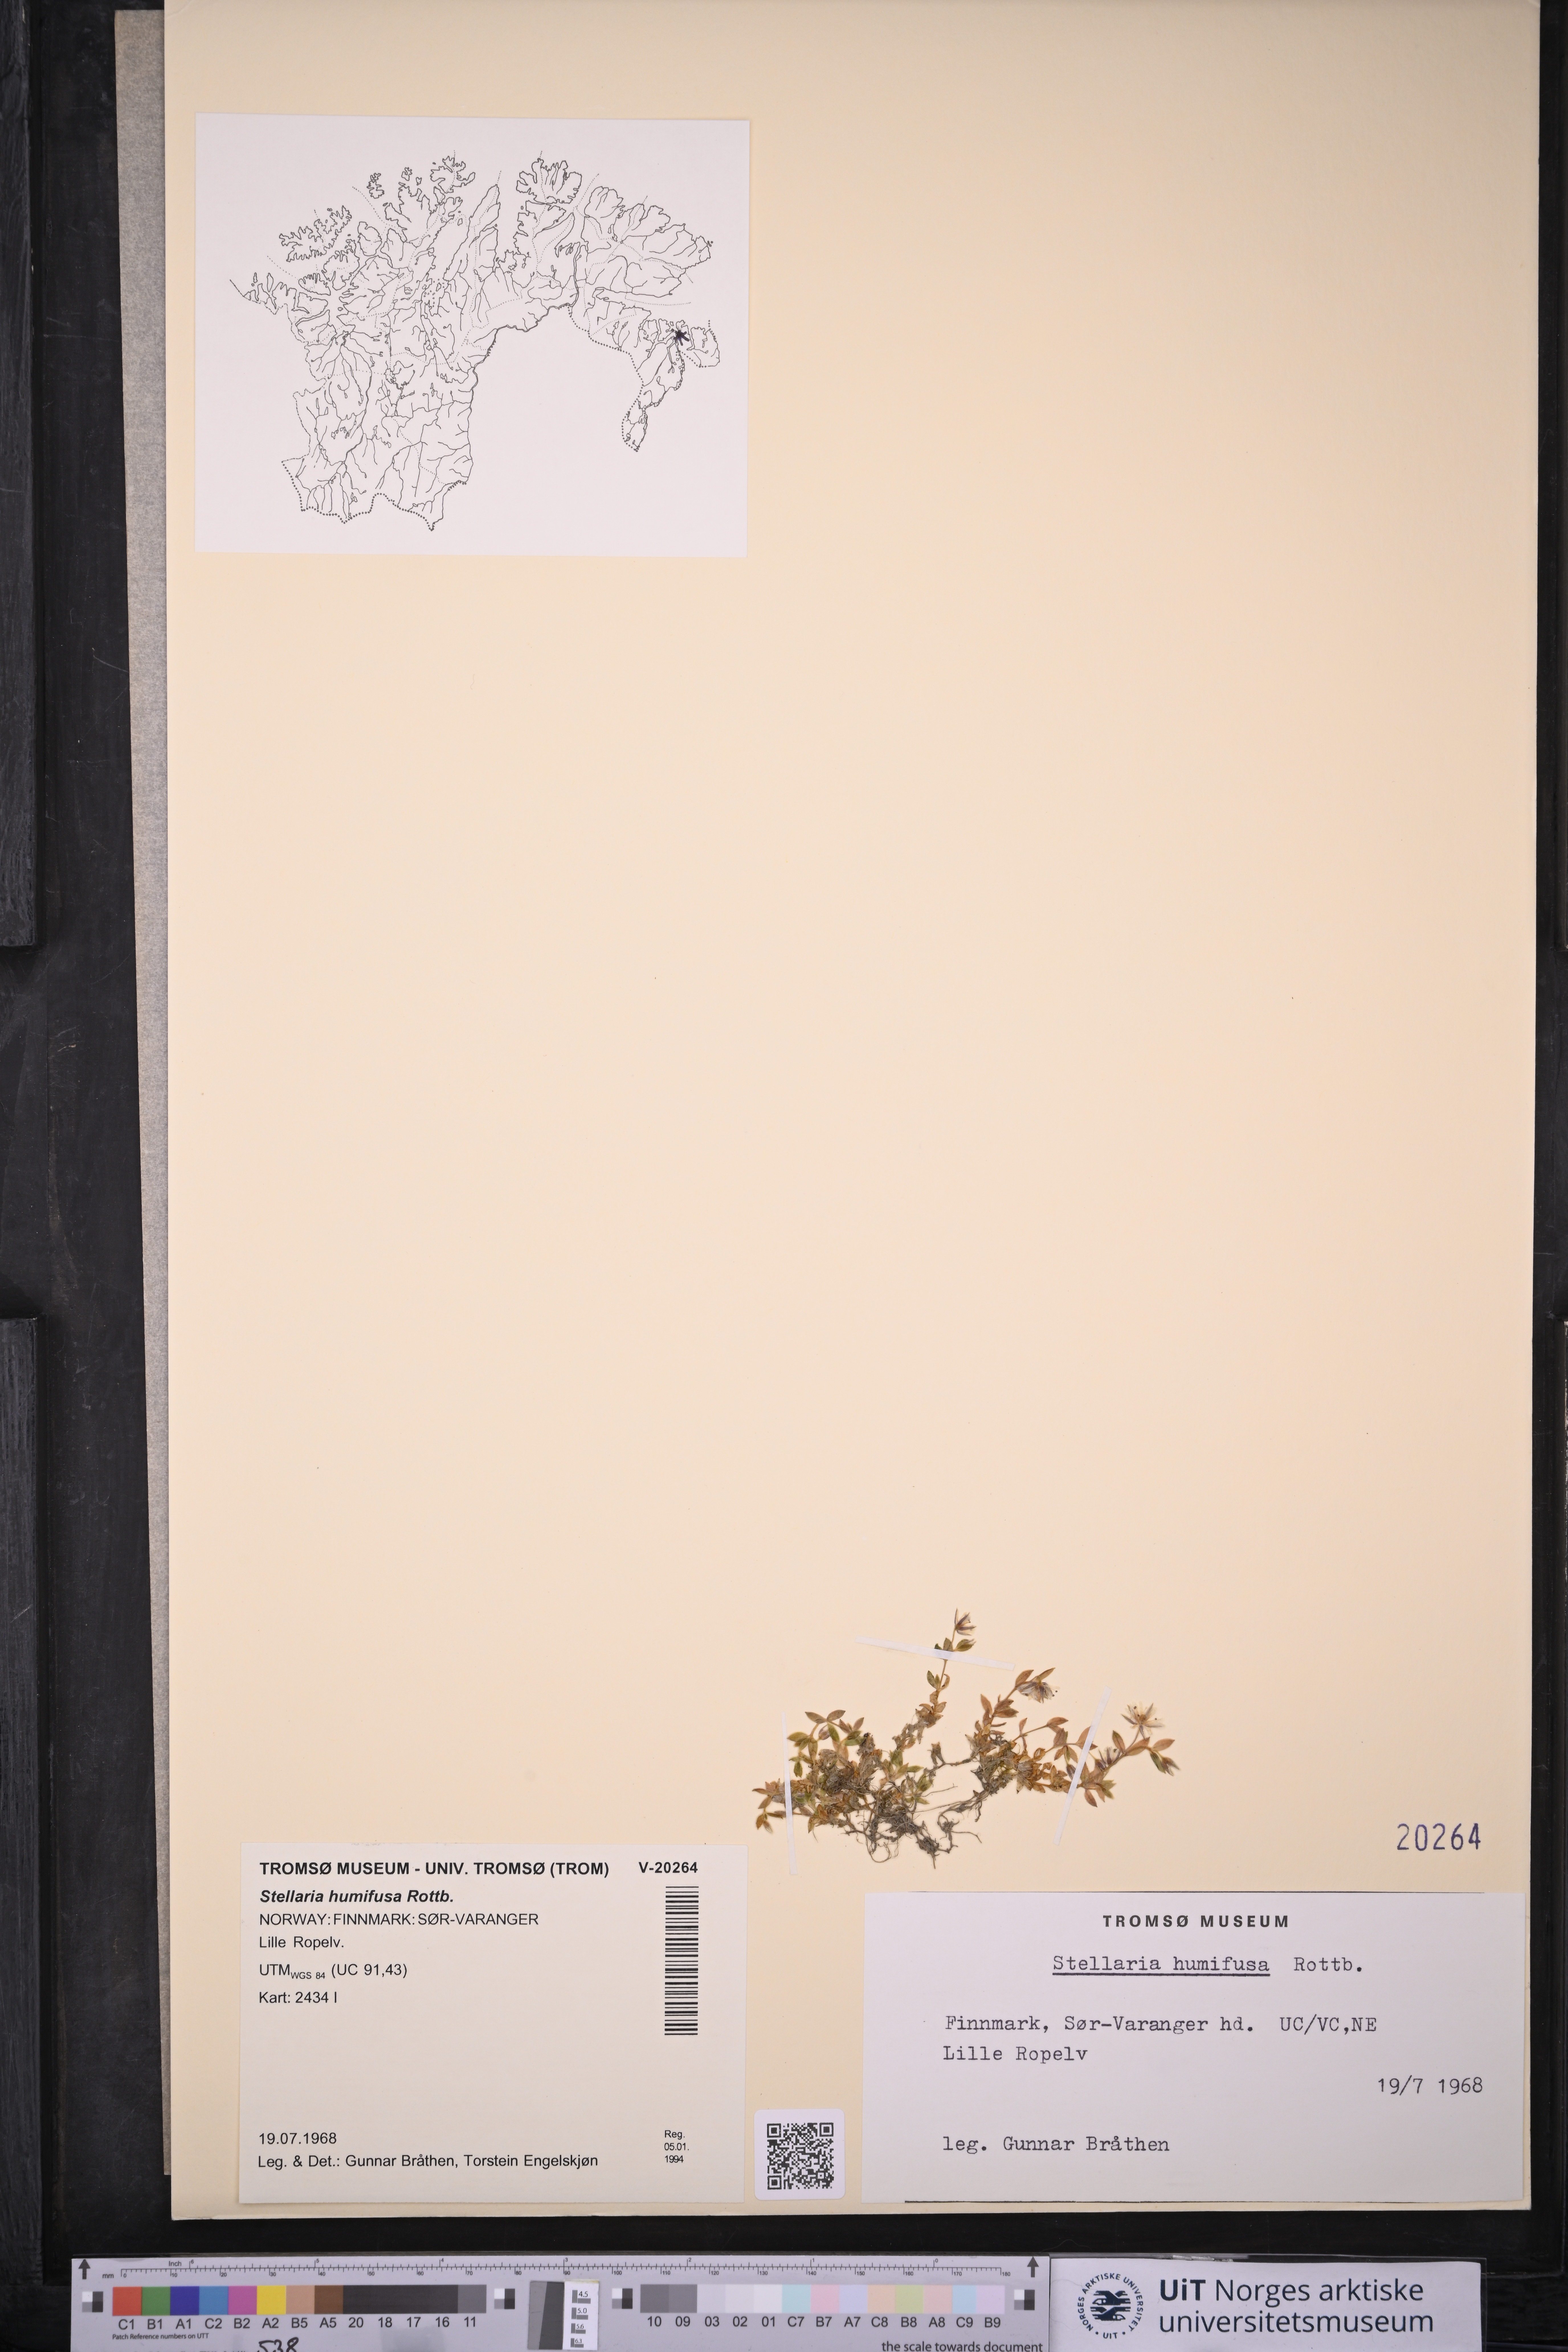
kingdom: Plantae
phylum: Tracheophyta
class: Magnoliopsida
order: Caryophyllales
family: Caryophyllaceae
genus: Stellaria
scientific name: Stellaria humifusa
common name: Creeping starwort
